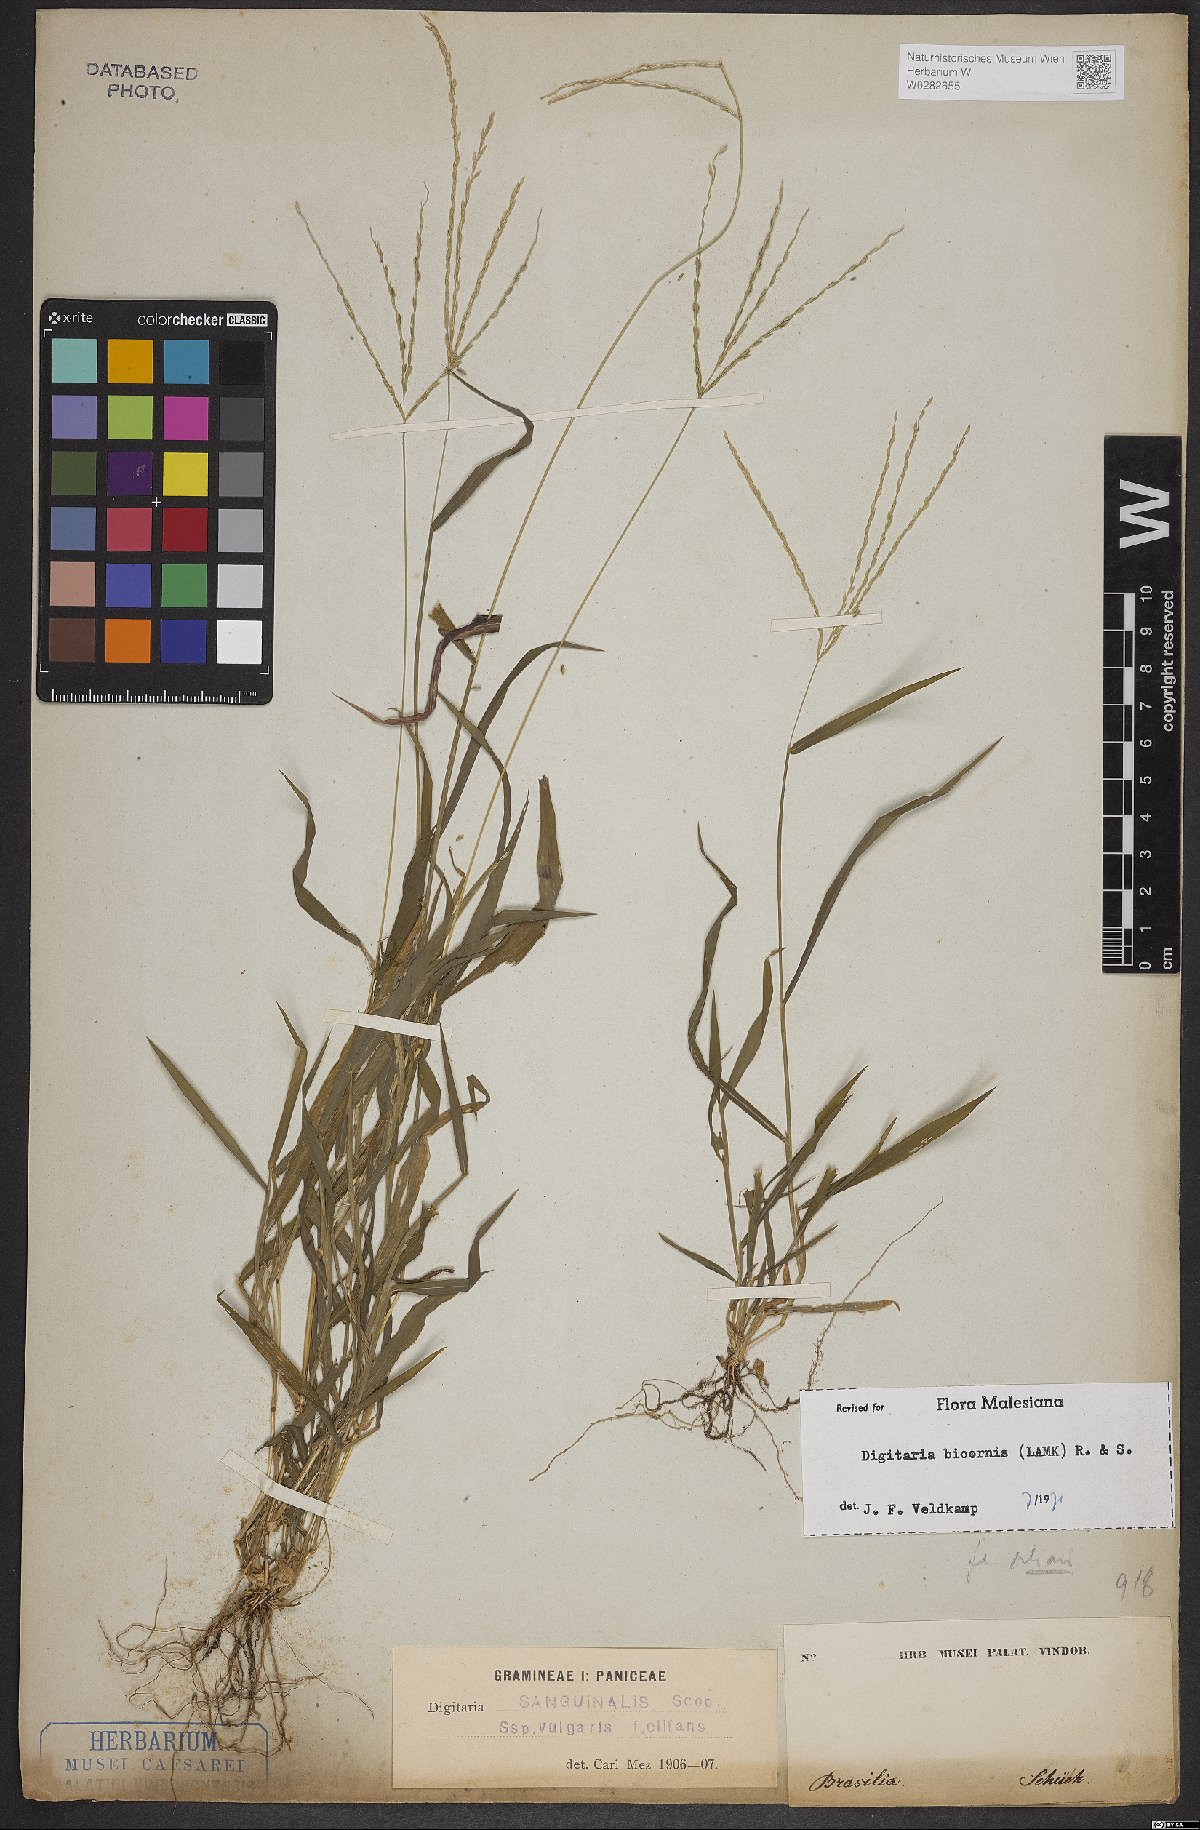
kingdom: Plantae
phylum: Tracheophyta
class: Liliopsida
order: Poales
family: Poaceae
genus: Digitaria
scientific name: Digitaria bicornis
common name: Asian crabgrass
